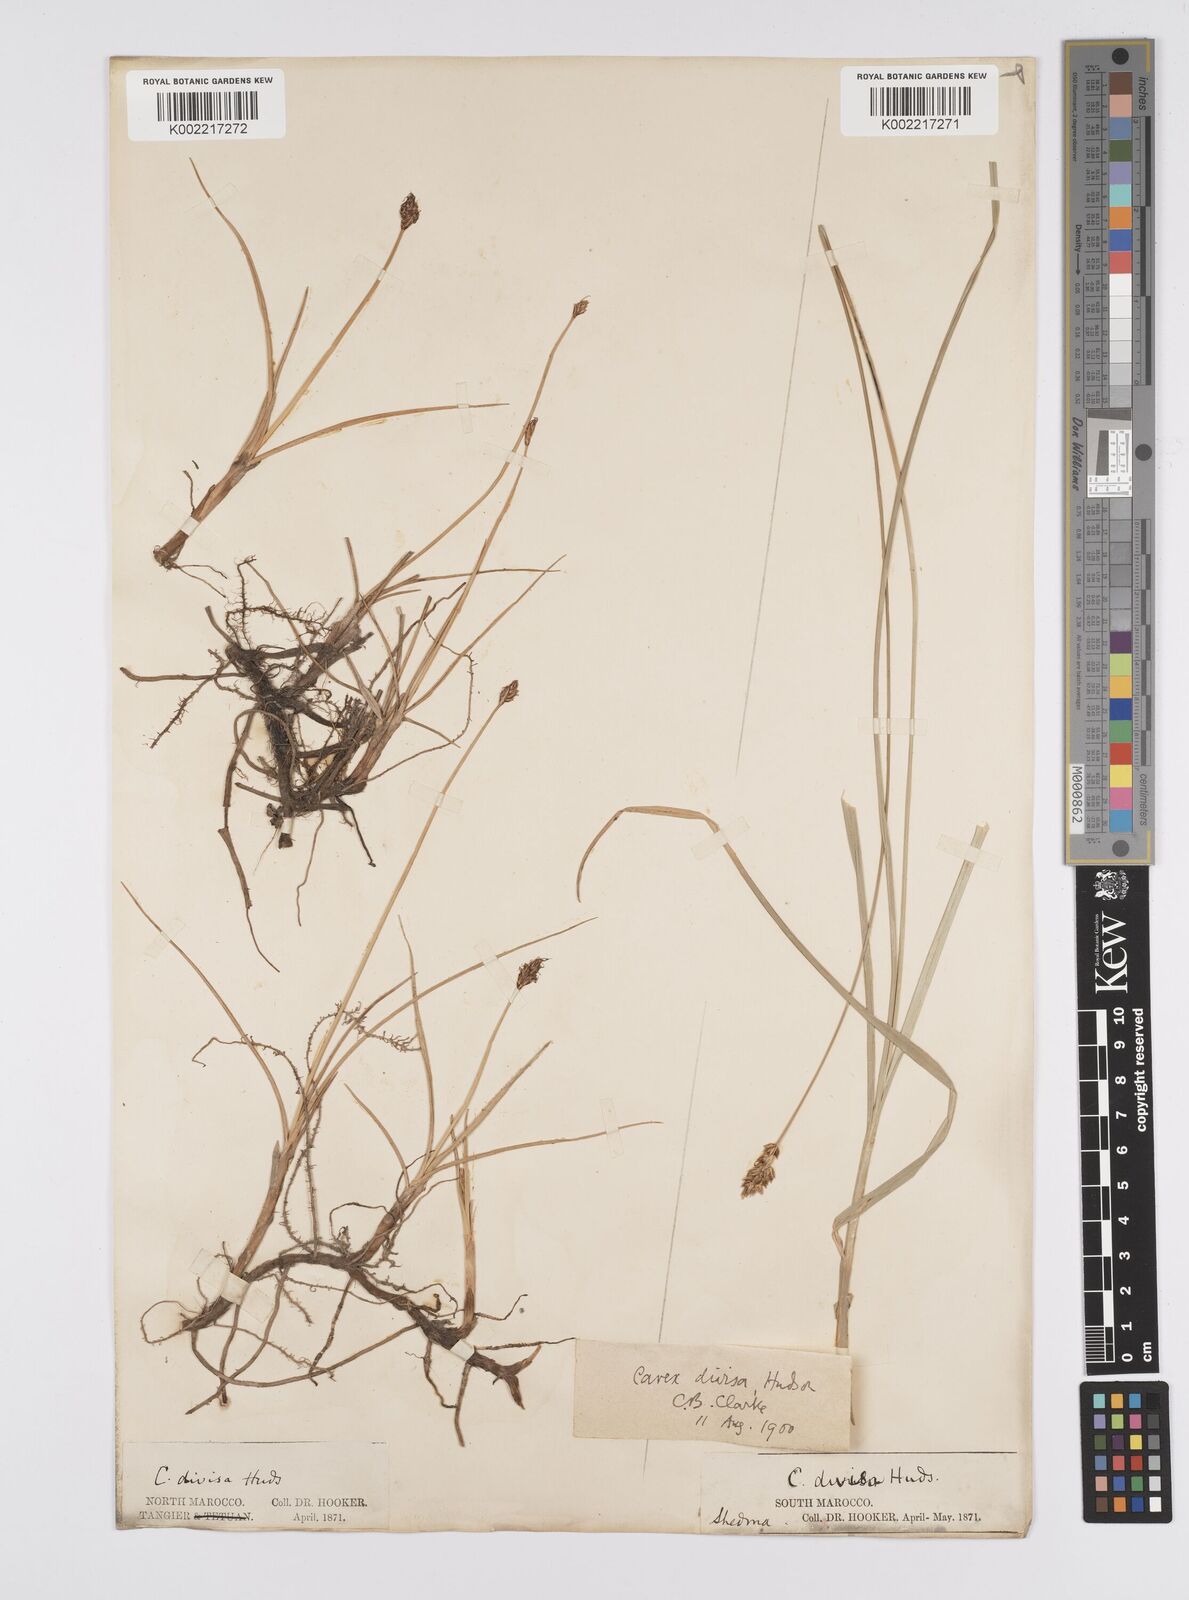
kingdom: Plantae
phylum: Tracheophyta
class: Liliopsida
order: Poales
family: Cyperaceae
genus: Carex
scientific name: Carex divisa
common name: Divided sedge
